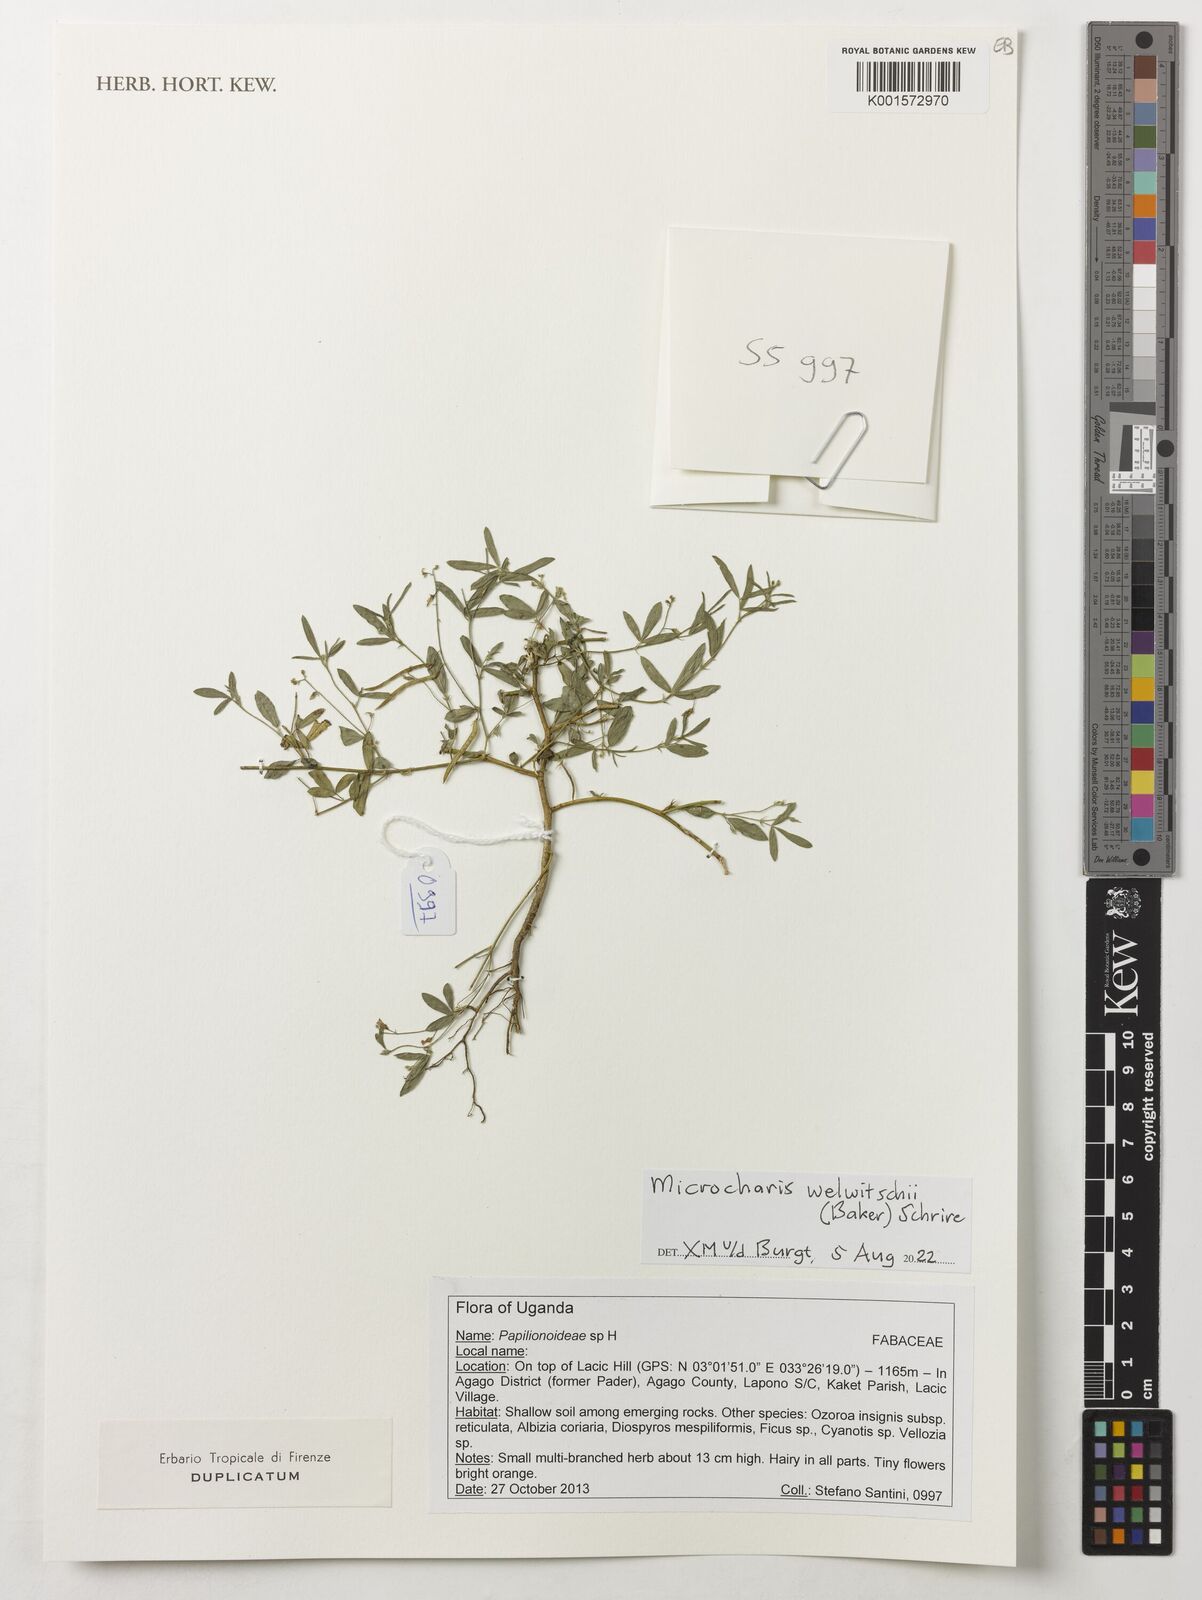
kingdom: Plantae
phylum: Tracheophyta
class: Magnoliopsida
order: Fabales
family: Fabaceae
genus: Microcharis
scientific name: Microcharis welwitschii
